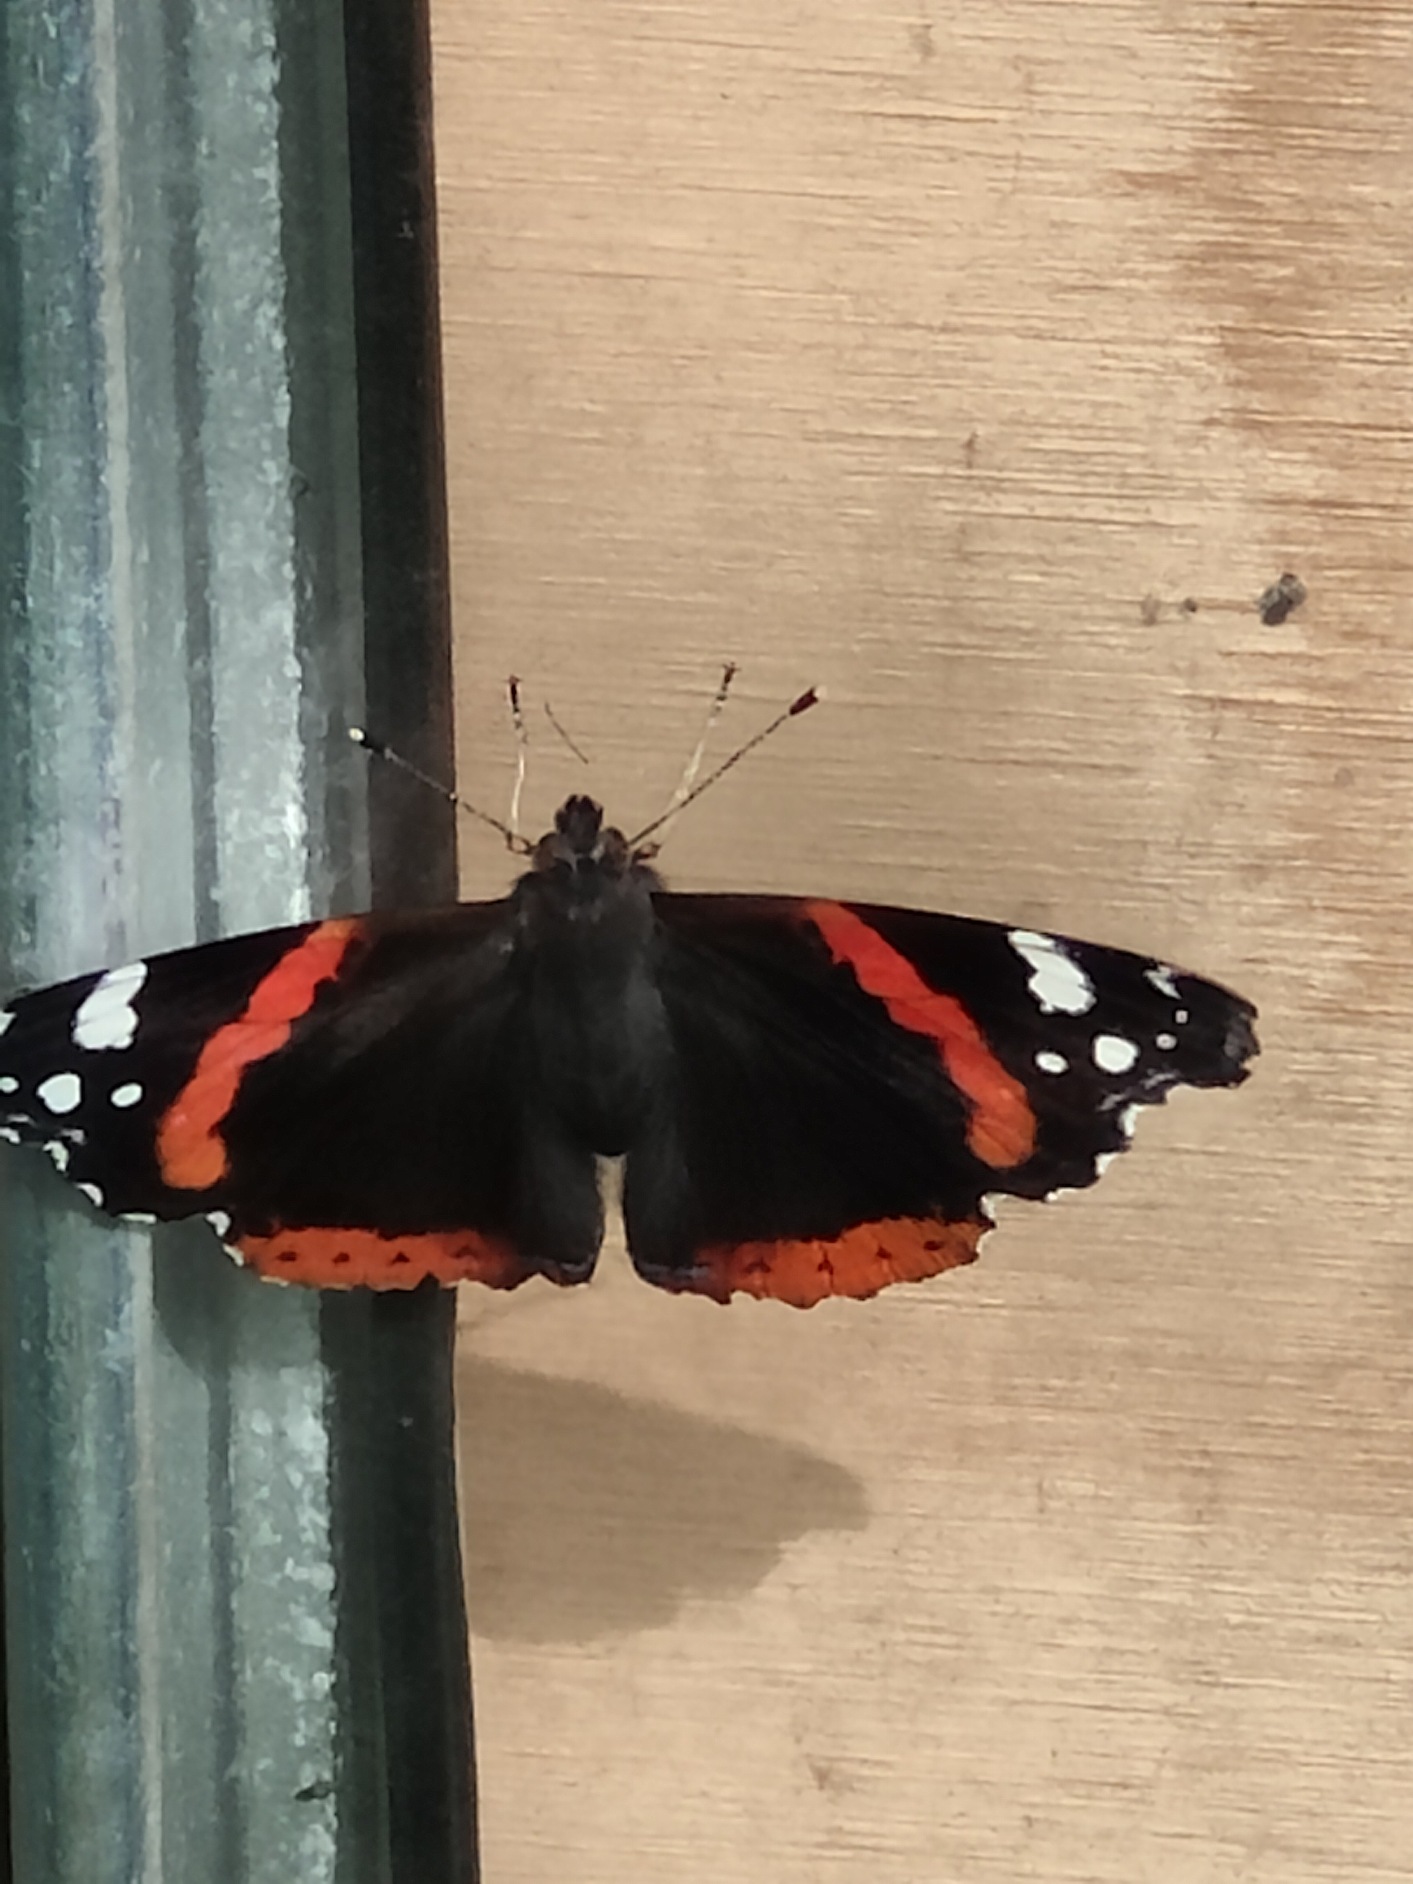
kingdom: Animalia
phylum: Arthropoda
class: Insecta
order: Lepidoptera
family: Nymphalidae
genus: Vanessa
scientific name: Vanessa atalanta
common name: Admiral
